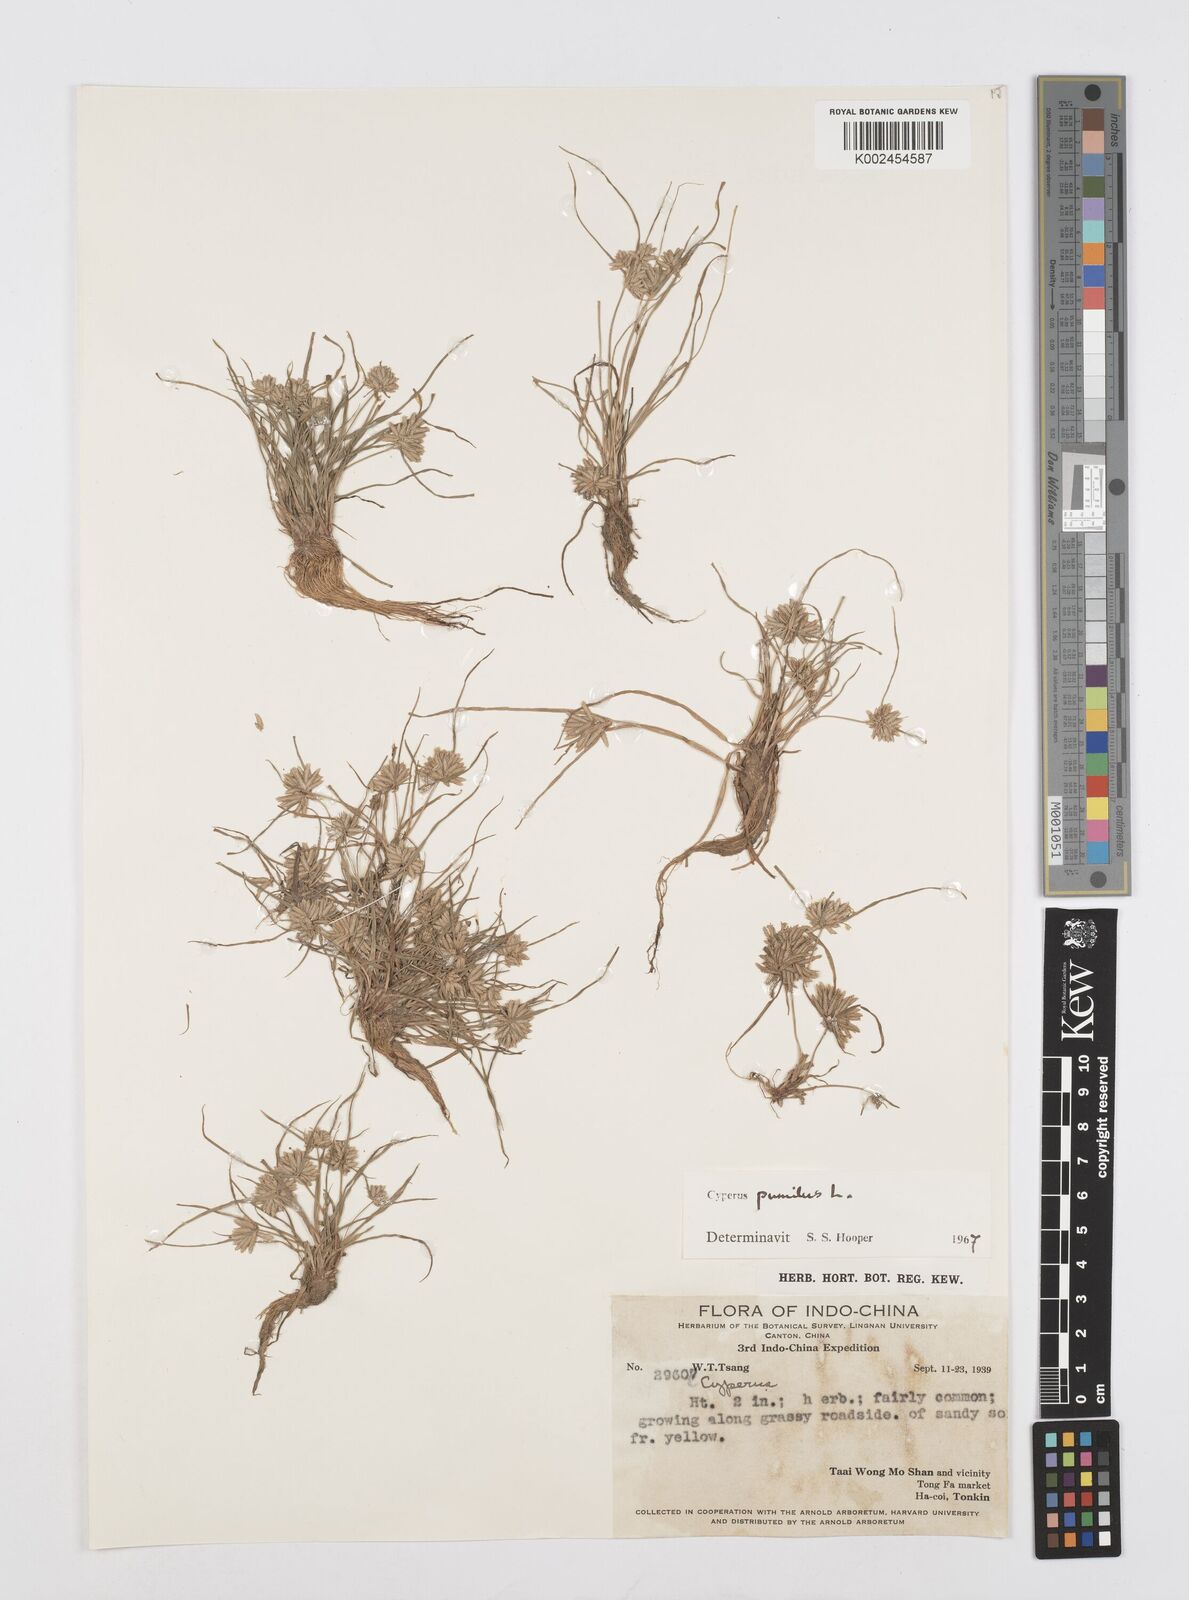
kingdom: Plantae
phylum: Tracheophyta
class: Liliopsida
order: Poales
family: Cyperaceae
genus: Cyperus
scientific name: Cyperus pumilus
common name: Low flatsedge
